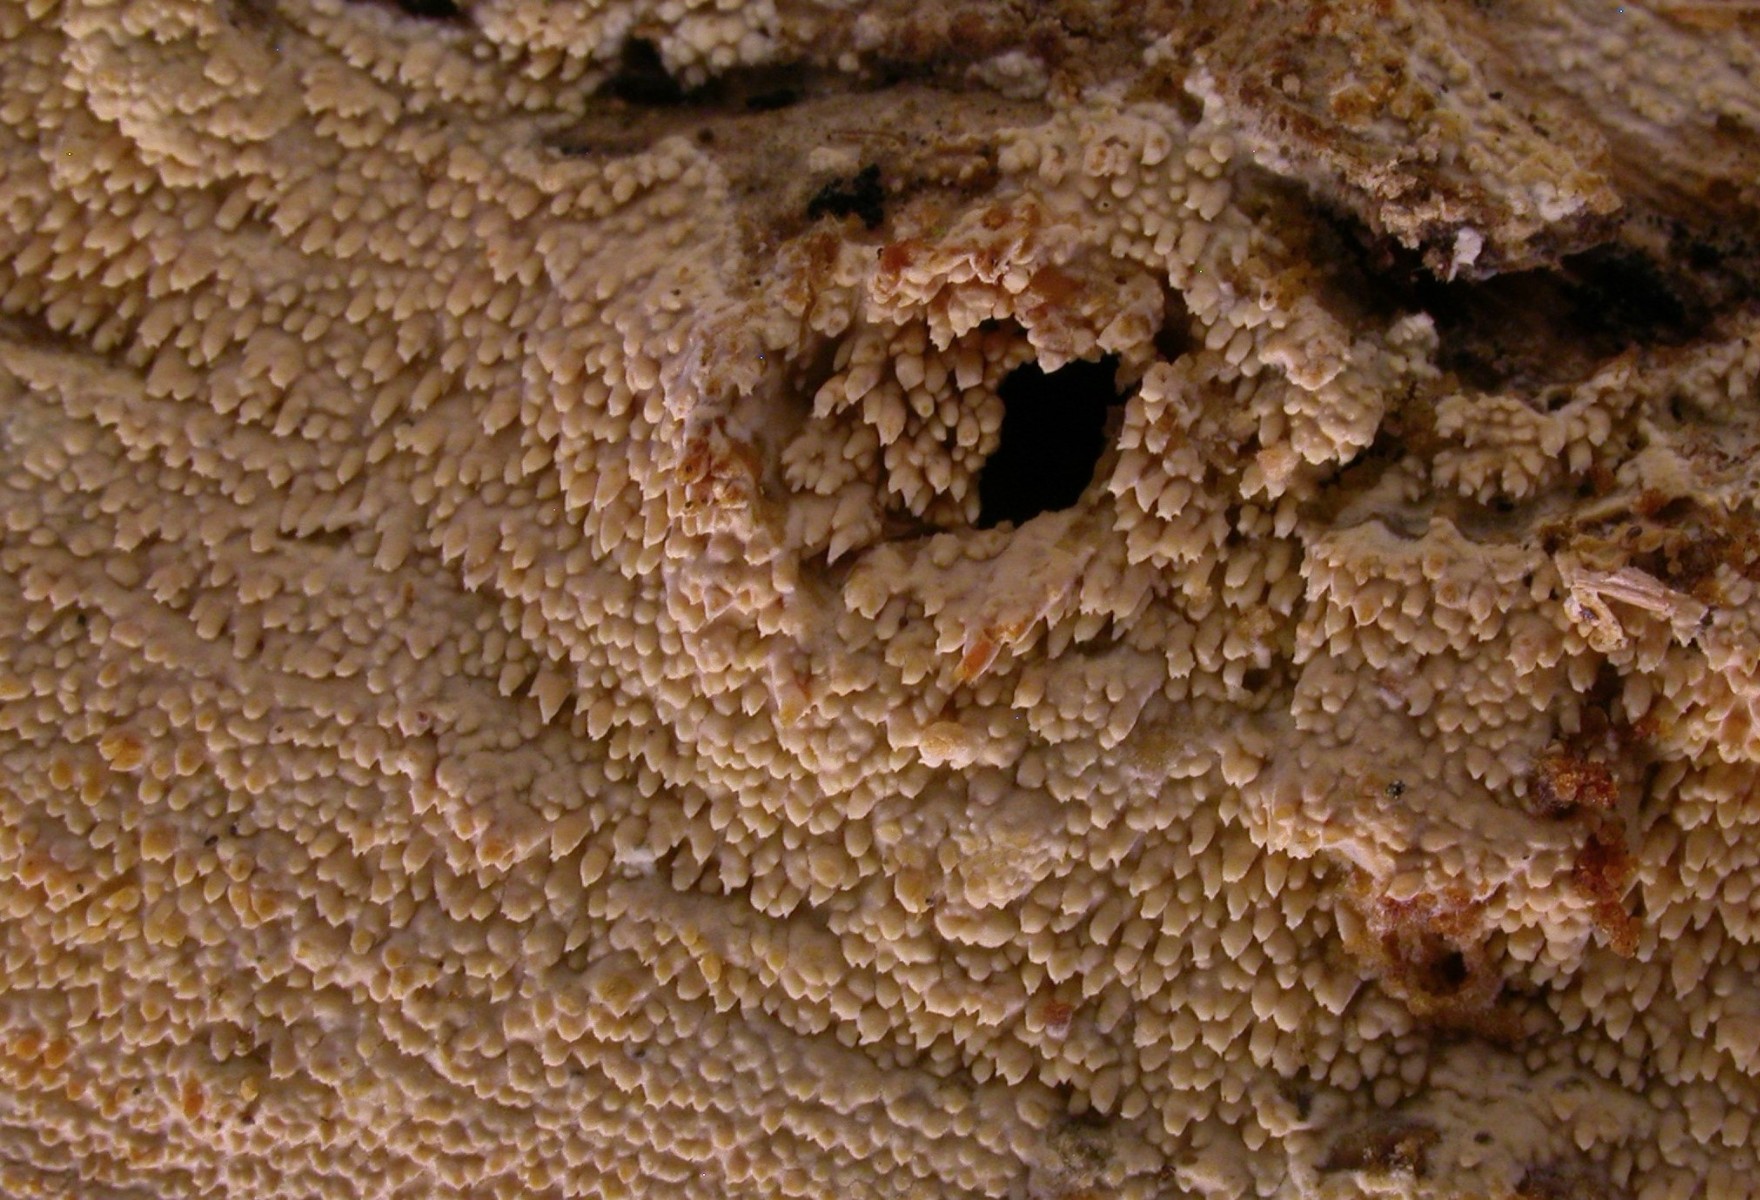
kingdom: Fungi
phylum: Basidiomycota
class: Agaricomycetes
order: Hymenochaetales
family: Hyphodontiaceae
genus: Hyphodontia
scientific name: Hyphodontia quercina
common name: ege-tandsvamp
